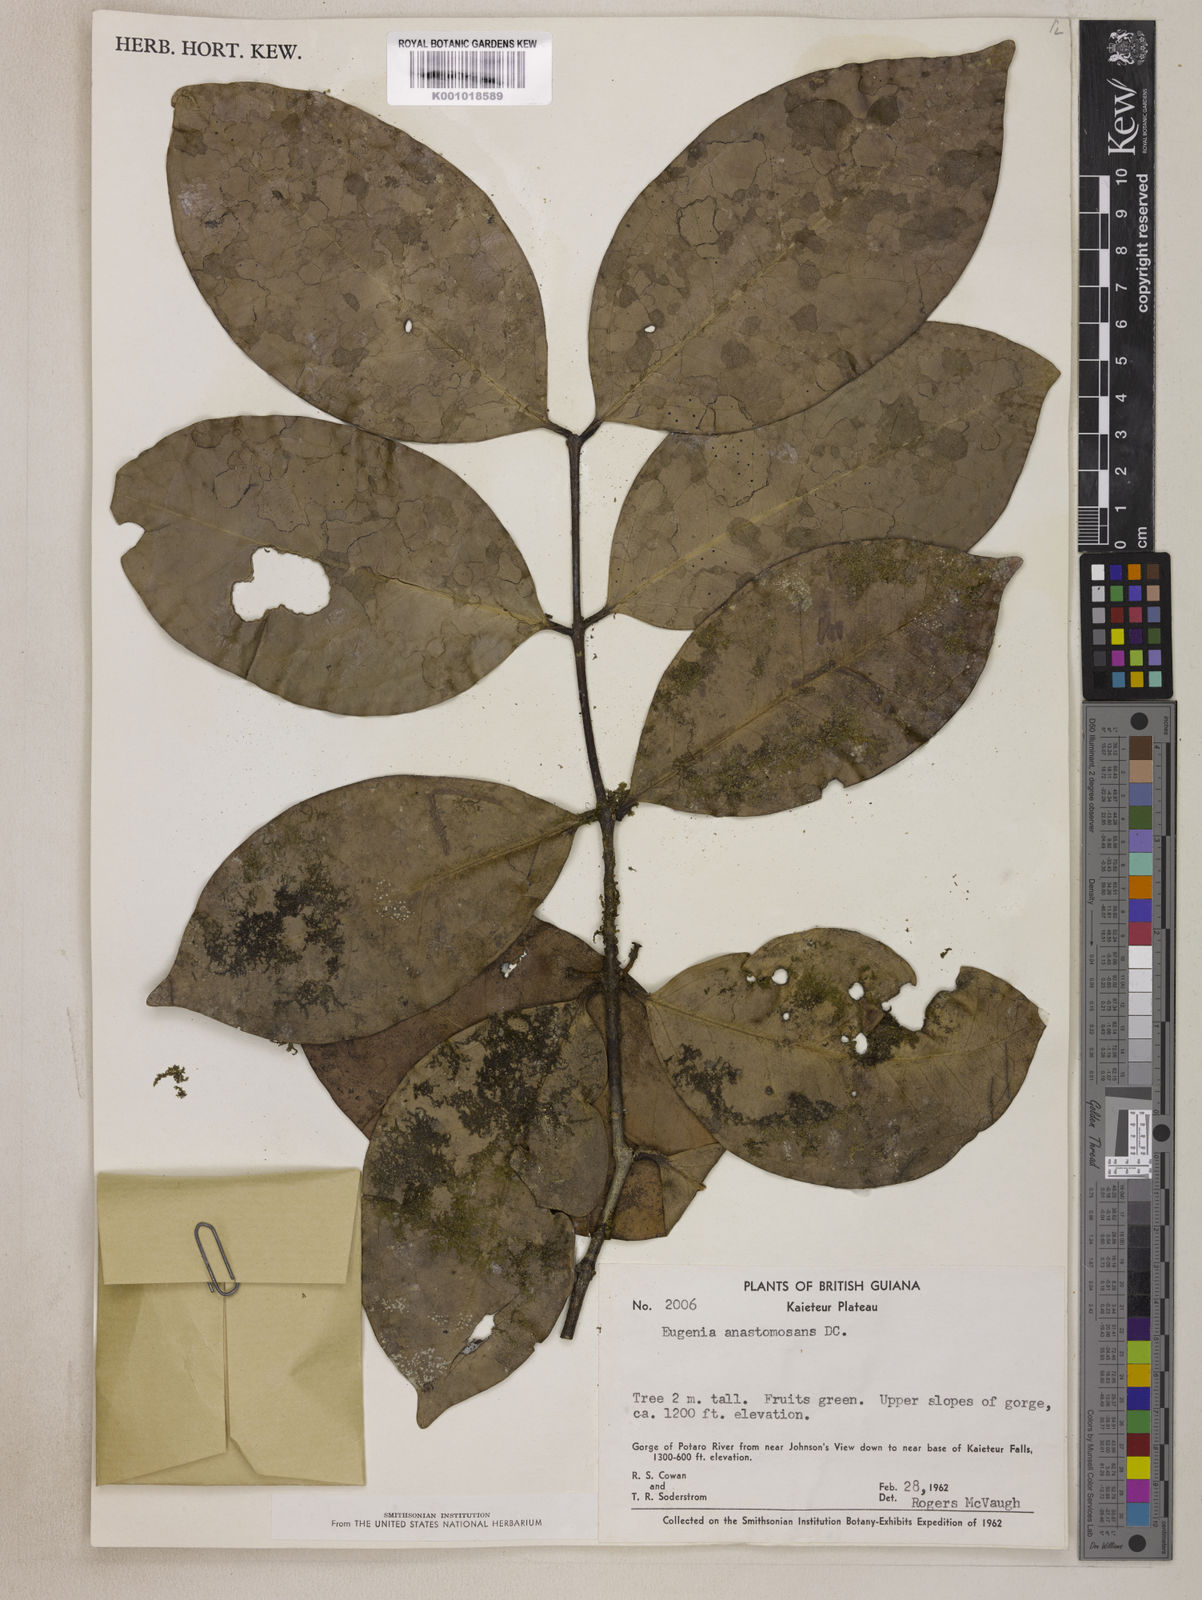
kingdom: Plantae
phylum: Tracheophyta
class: Magnoliopsida
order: Myrtales
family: Myrtaceae
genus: Eugenia
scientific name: Eugenia anastomosans
